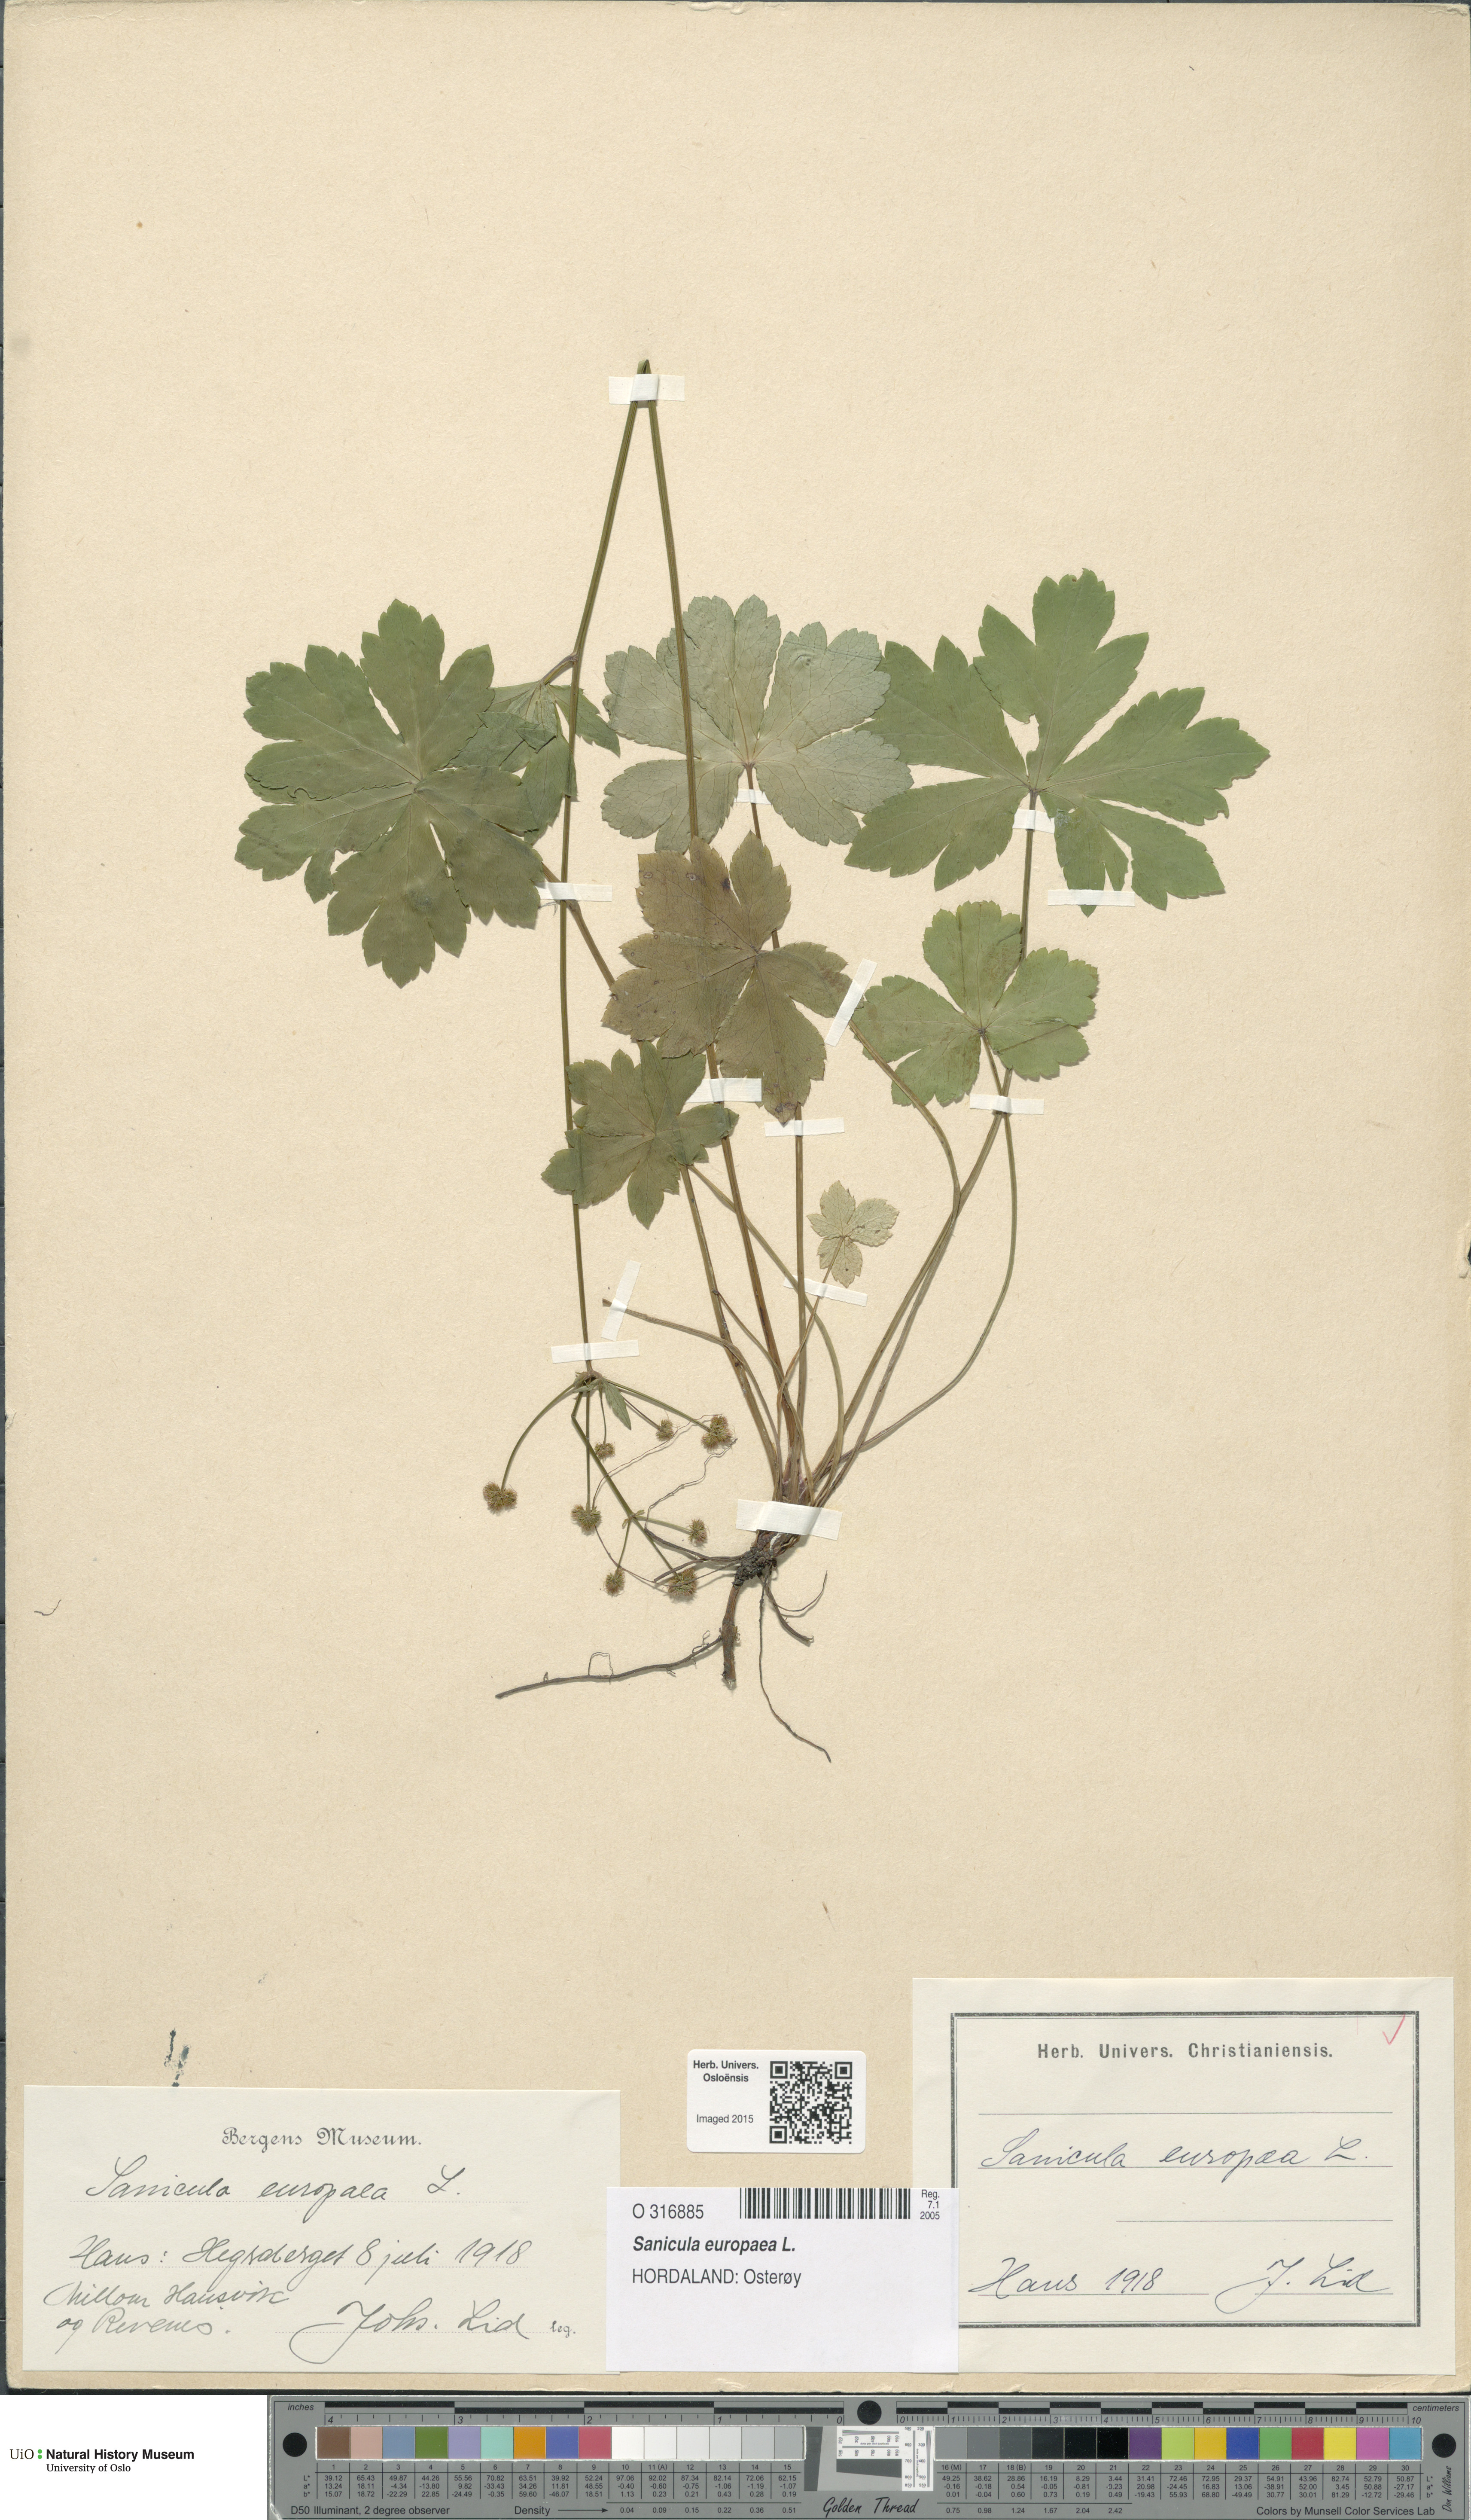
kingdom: Plantae
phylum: Tracheophyta
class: Magnoliopsida
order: Apiales
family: Apiaceae
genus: Sanicula
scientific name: Sanicula europaea
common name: Sanicle
